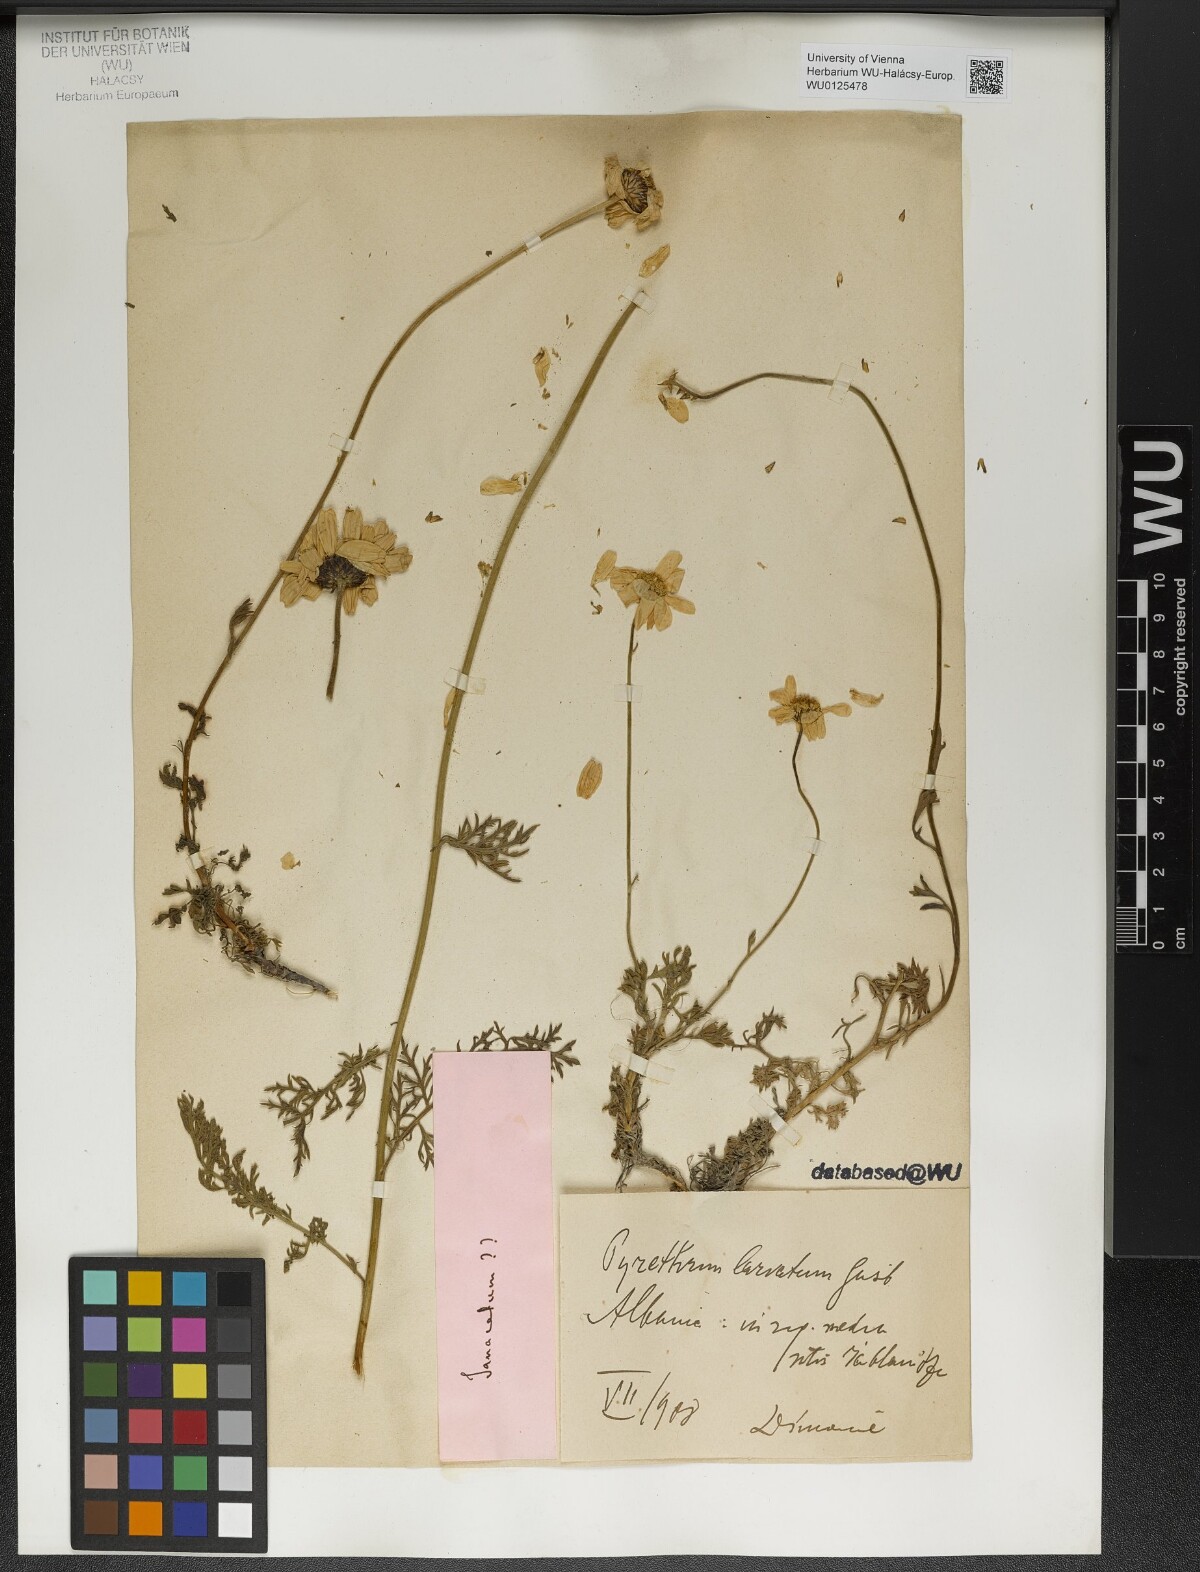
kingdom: Plantae
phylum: Tracheophyta
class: Magnoliopsida
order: Asterales
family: Asteraceae
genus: Tanacetum
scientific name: Tanacetum
